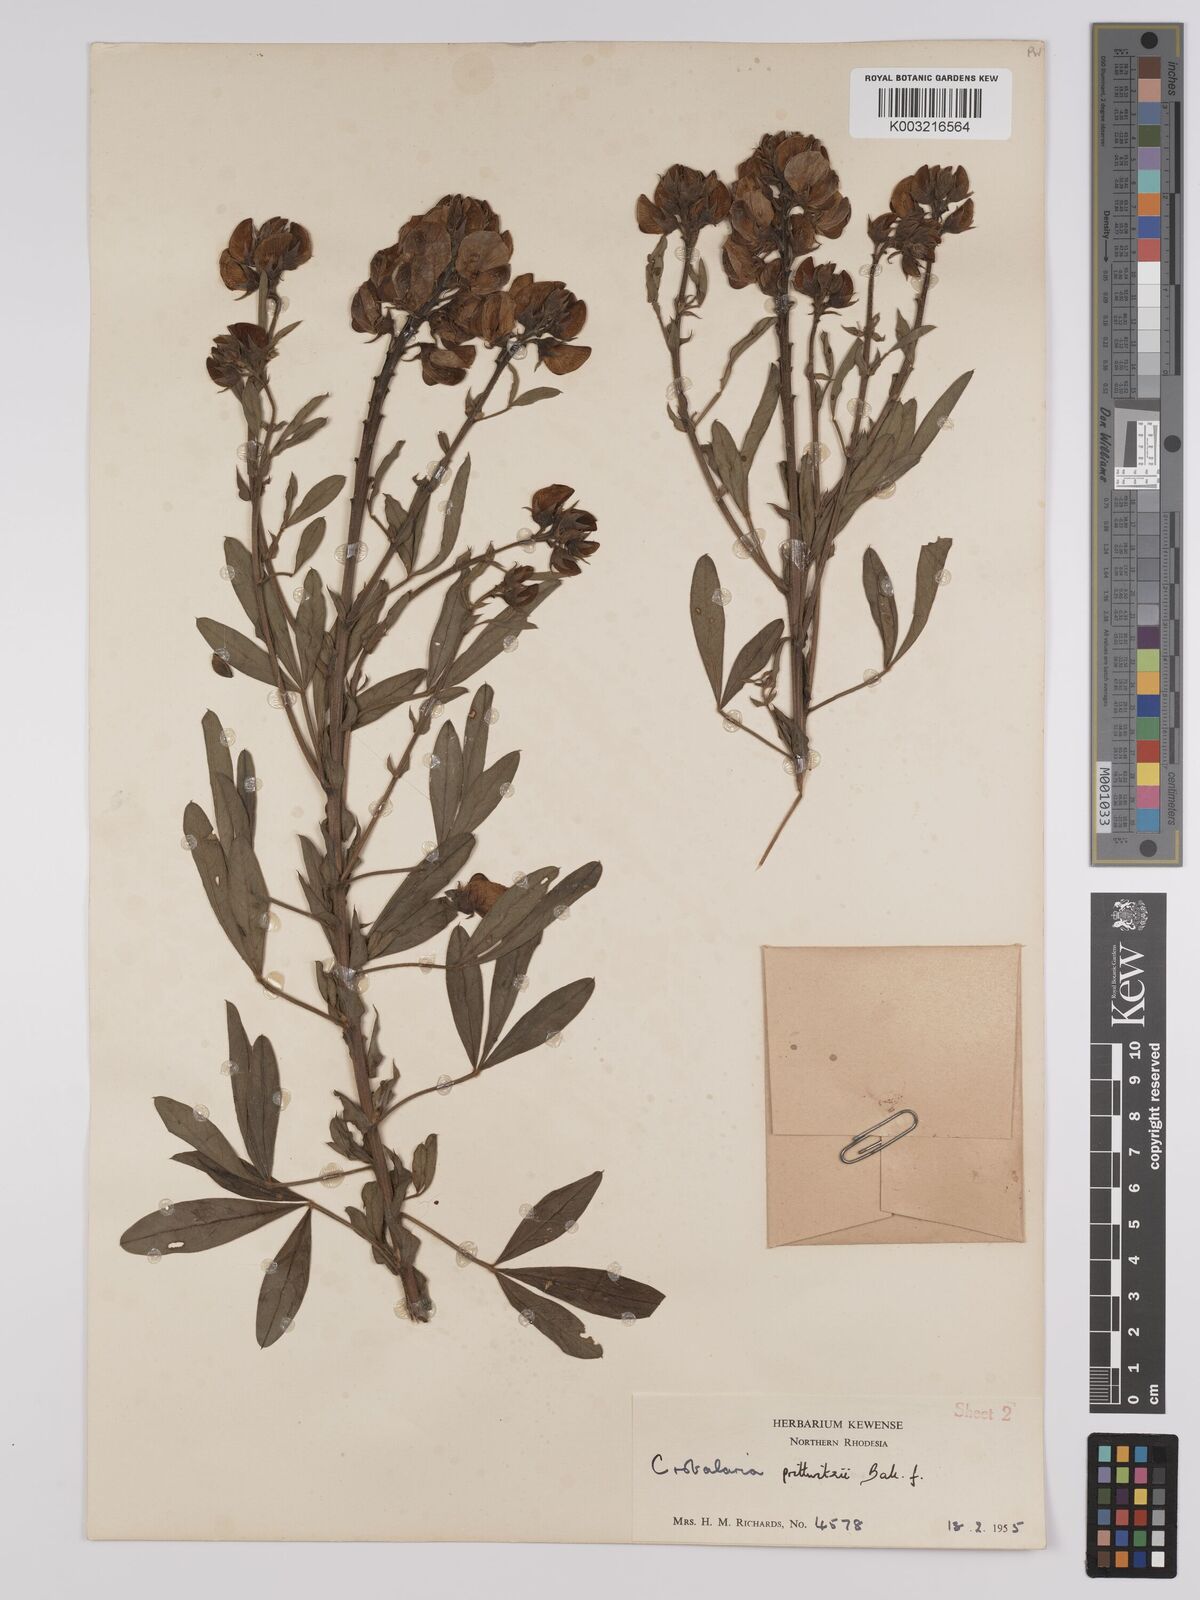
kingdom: Plantae
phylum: Tracheophyta
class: Magnoliopsida
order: Fabales
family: Fabaceae
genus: Crotalaria
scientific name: Crotalaria prittwitzii
